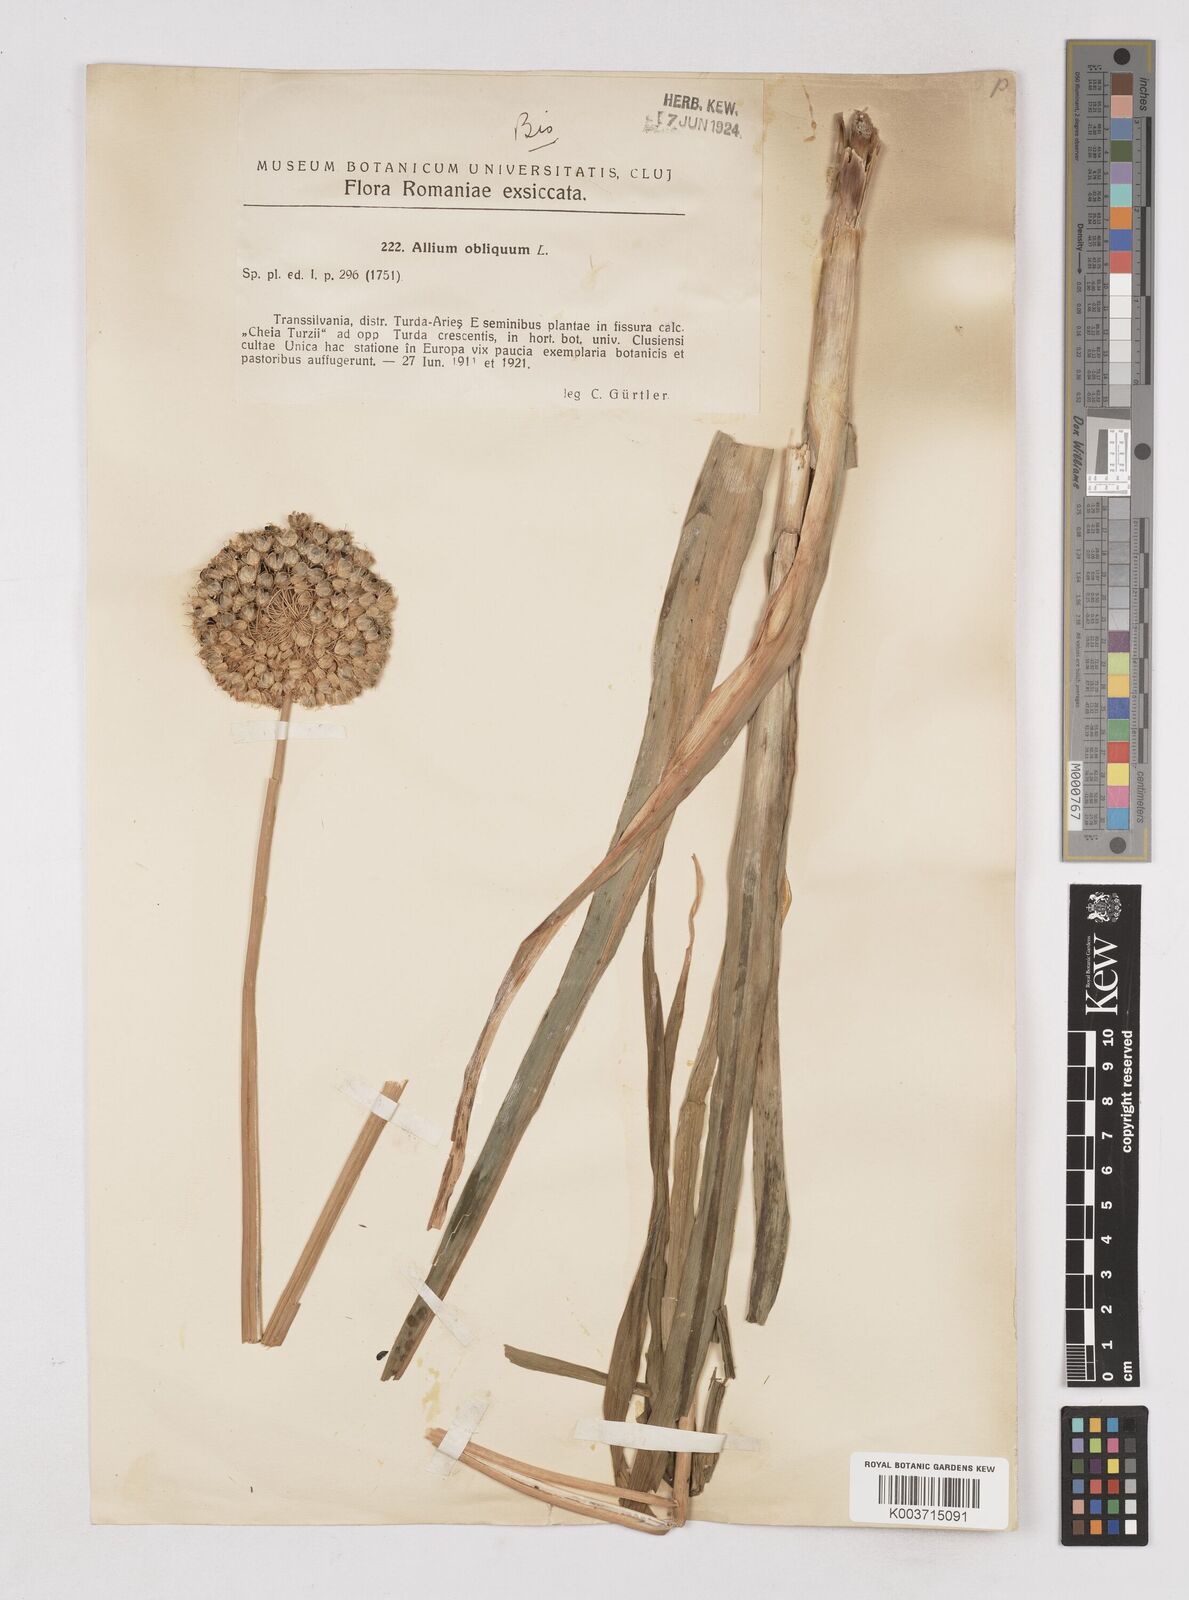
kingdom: Plantae
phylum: Tracheophyta
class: Liliopsida
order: Asparagales
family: Amaryllidaceae
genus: Allium
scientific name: Allium obliquum
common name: Oblique onion
